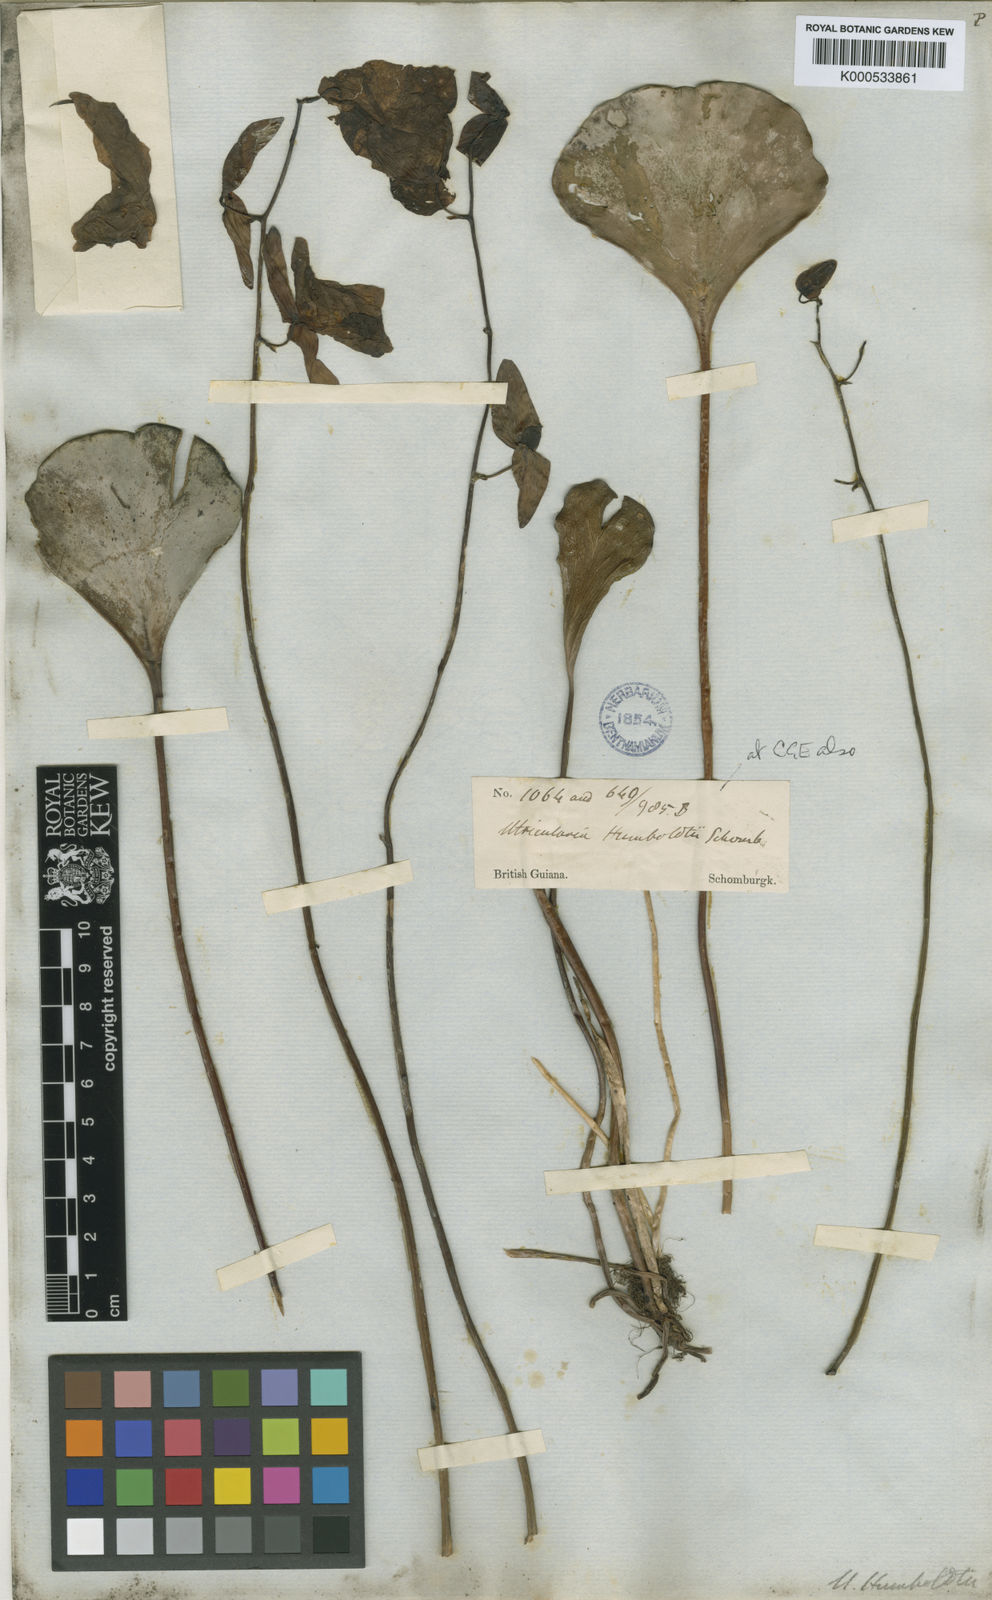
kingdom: Plantae
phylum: Tracheophyta
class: Magnoliopsida
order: Lamiales
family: Lentibulariaceae
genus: Utricularia
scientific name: Utricularia humboldtii
